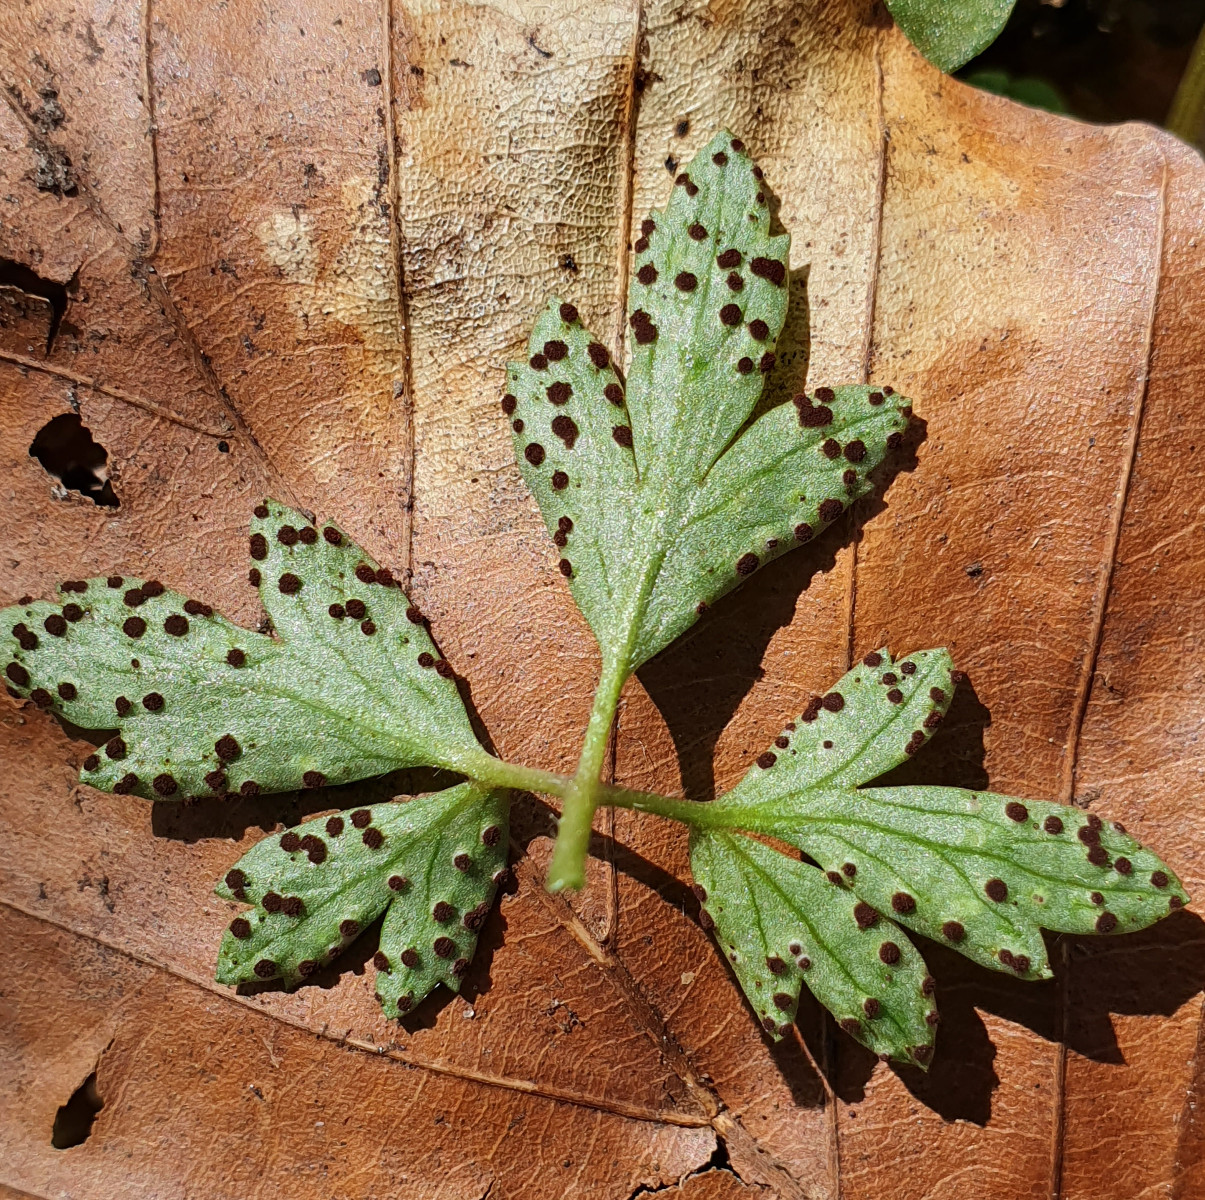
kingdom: Fungi
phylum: Basidiomycota
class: Pucciniomycetes
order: Pucciniales
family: Tranzscheliaceae
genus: Tranzschelia
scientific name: Tranzschelia anemones
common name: anemone-knæksporerust
